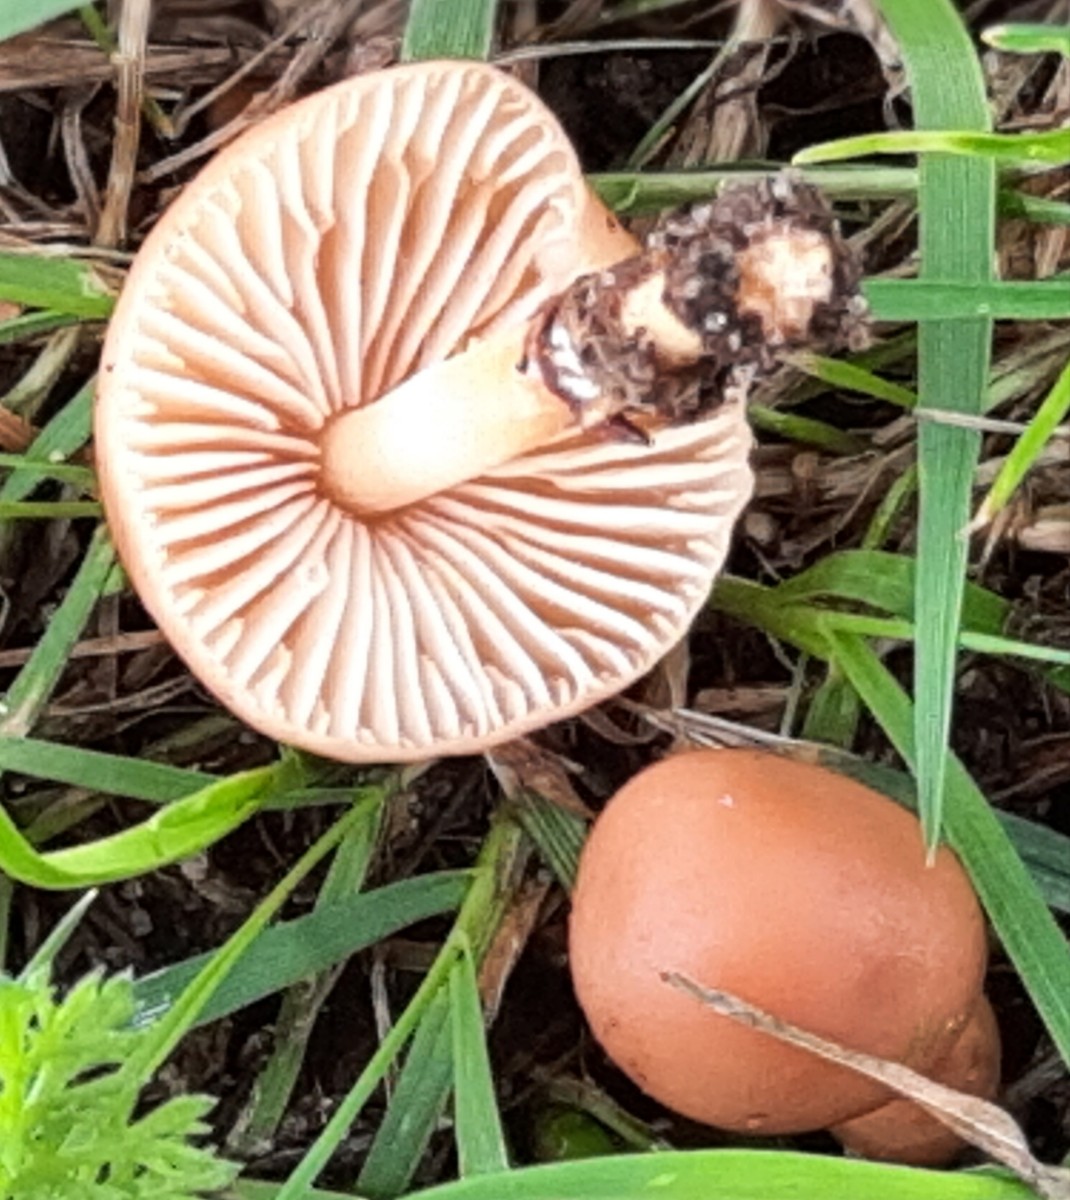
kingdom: Fungi
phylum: Basidiomycota
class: Agaricomycetes
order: Agaricales
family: Marasmiaceae
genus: Marasmius
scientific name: Marasmius oreades
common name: elledans-bruskhat
